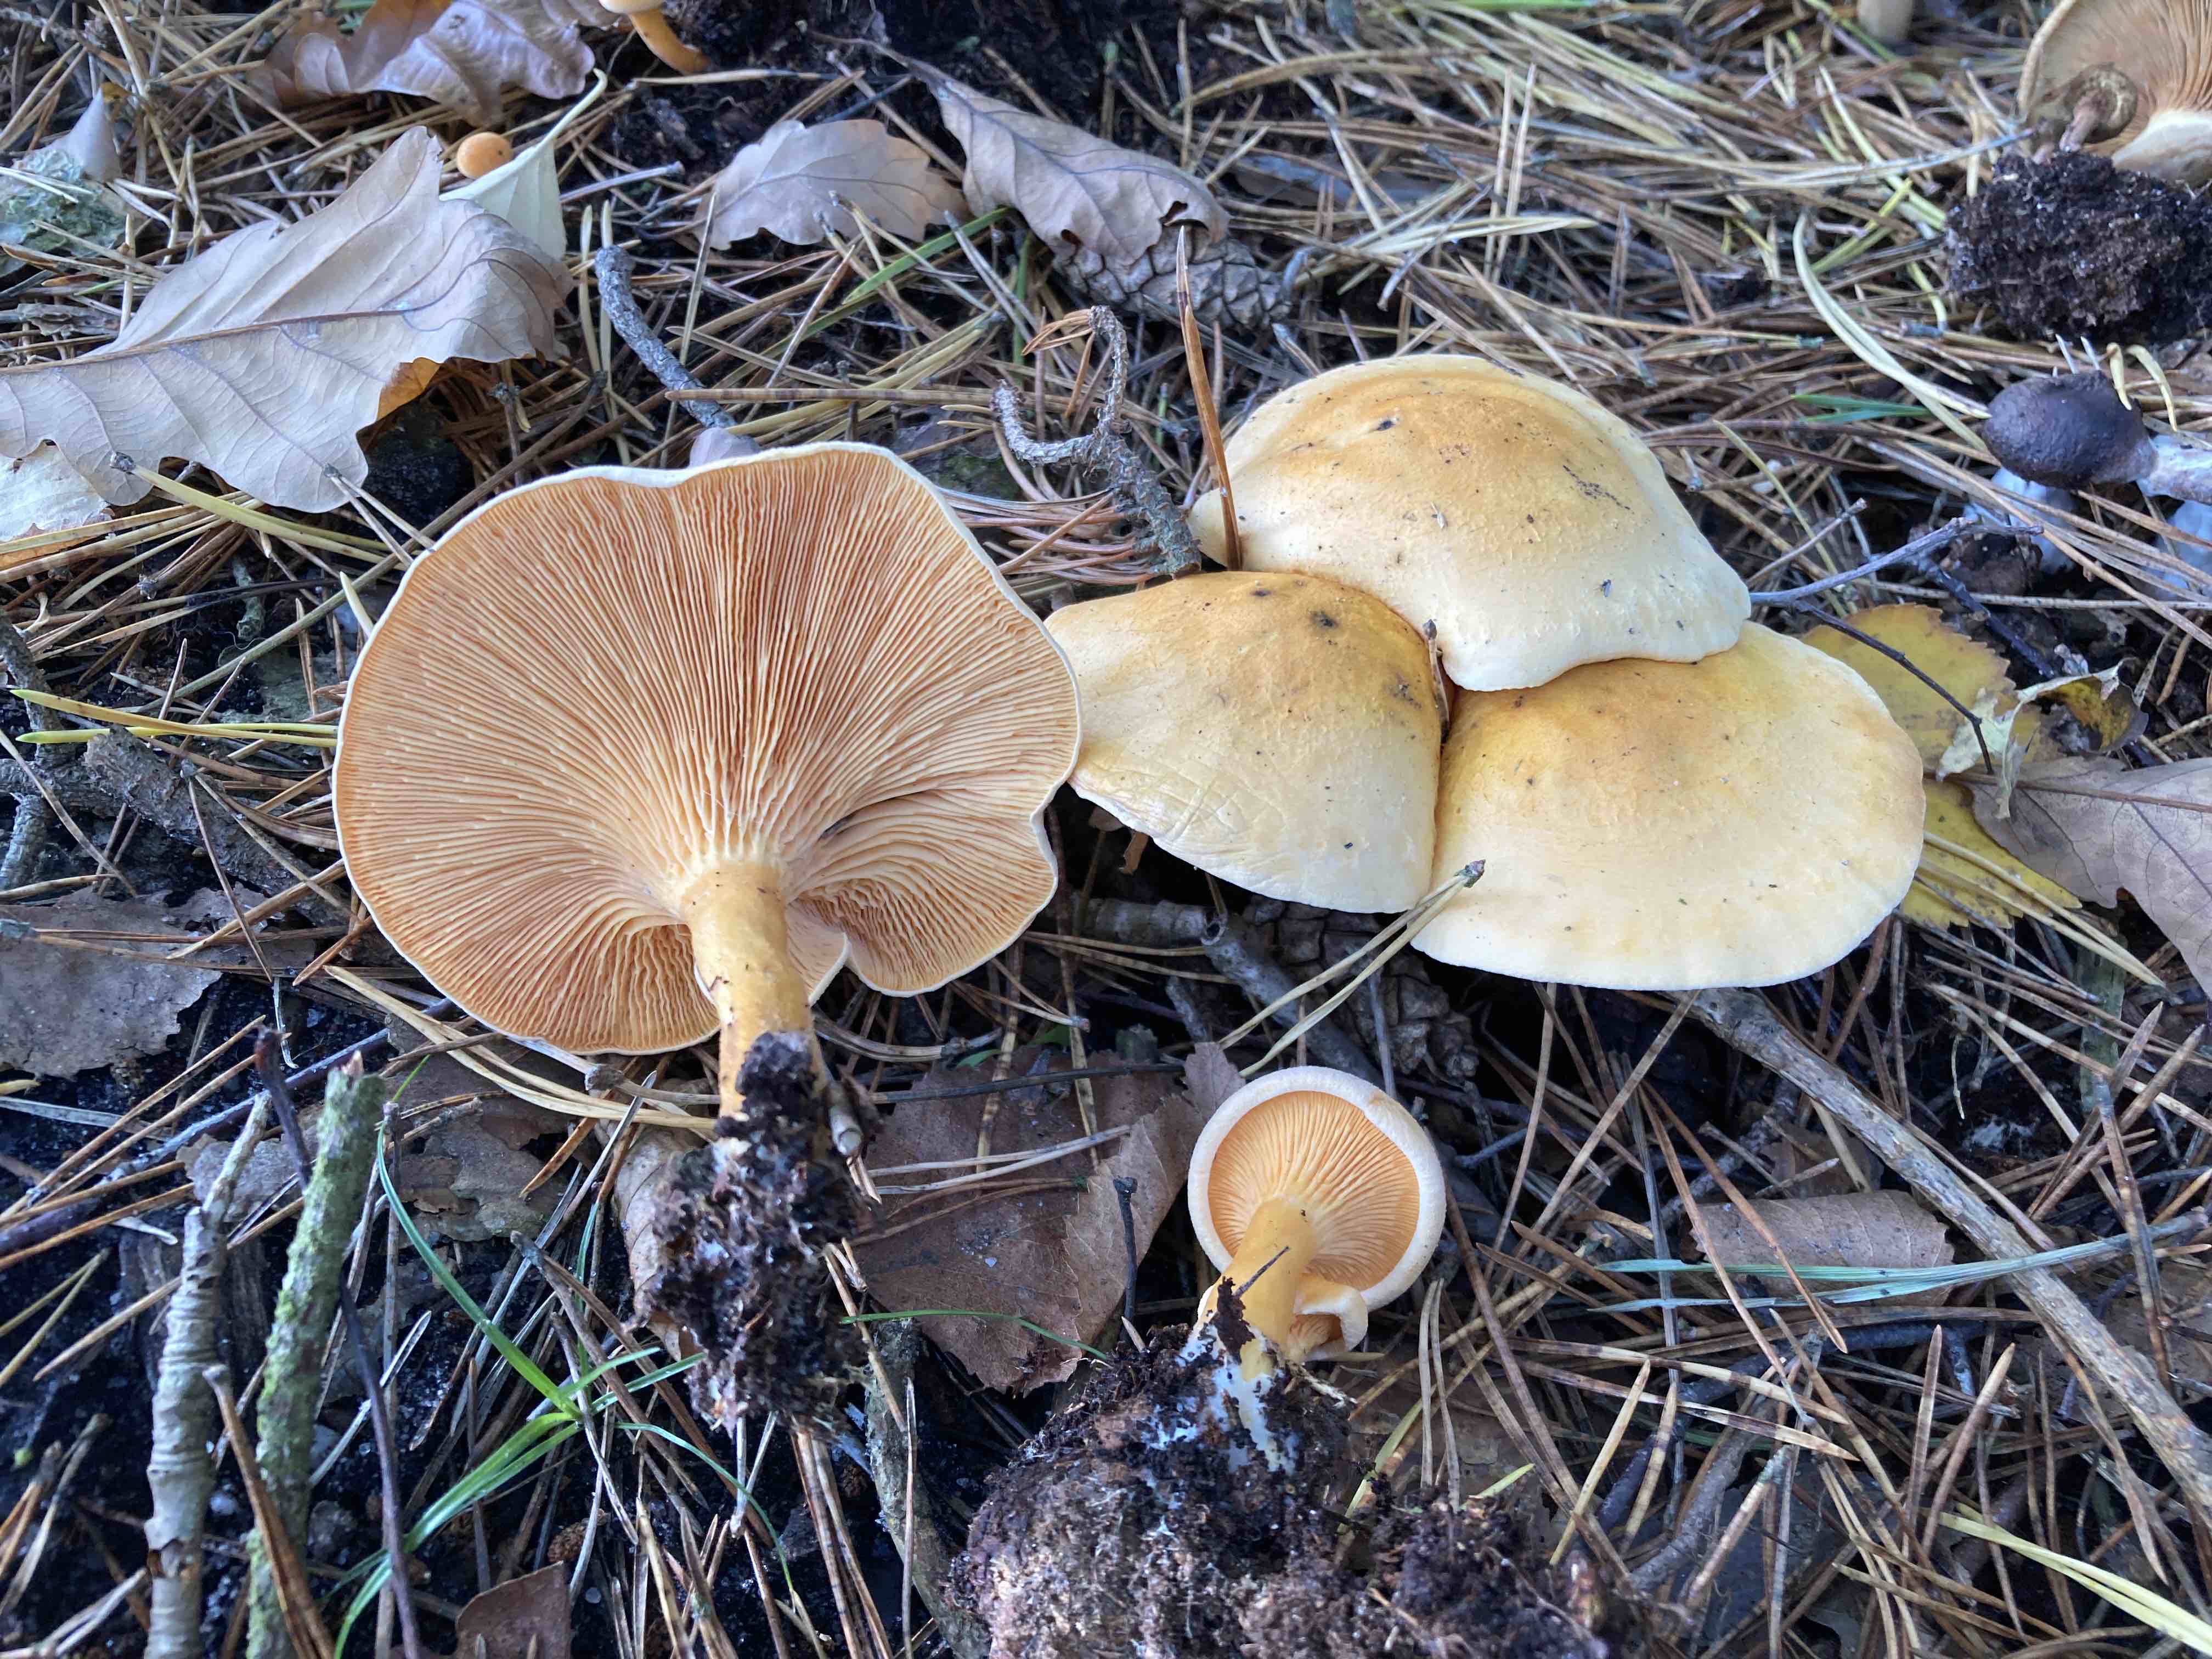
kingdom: Fungi
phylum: Basidiomycota
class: Agaricomycetes
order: Boletales
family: Hygrophoropsidaceae
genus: Hygrophoropsis
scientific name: Hygrophoropsis aurantiaca
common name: almindelig orangekantarel
